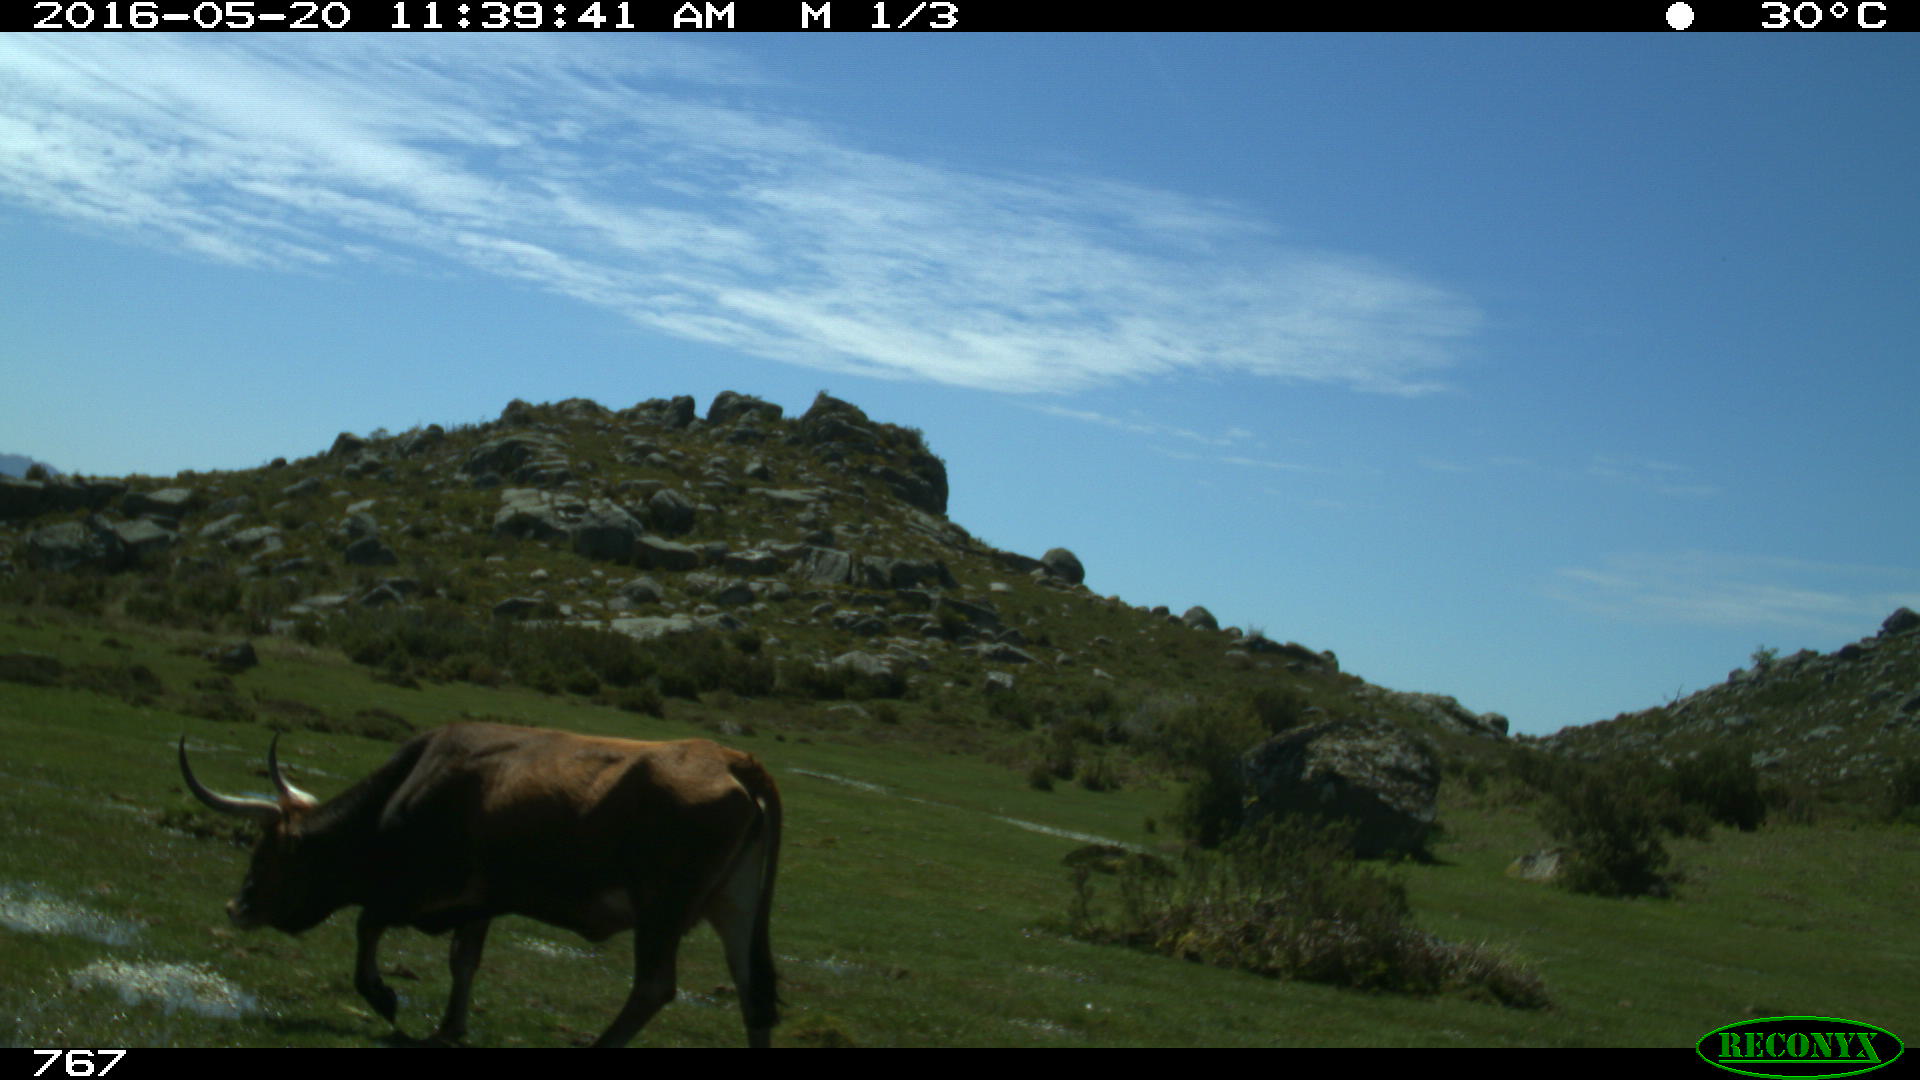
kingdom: Animalia
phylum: Chordata
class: Mammalia
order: Artiodactyla
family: Bovidae
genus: Bos
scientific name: Bos taurus
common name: Domesticated cattle
